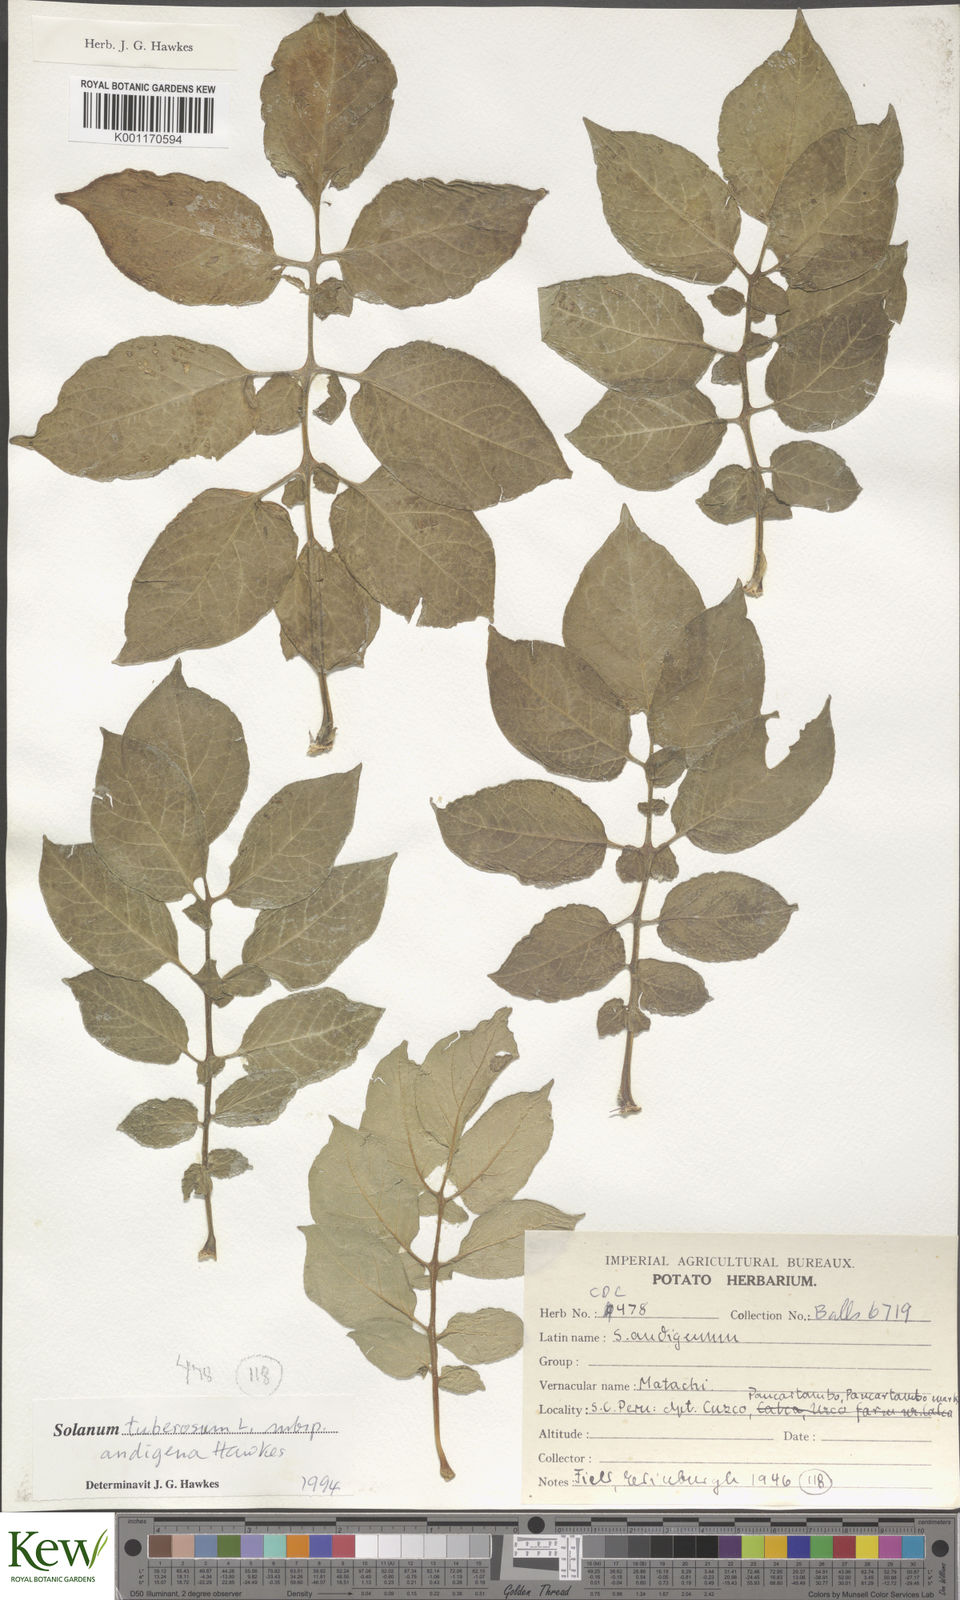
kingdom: Plantae
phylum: Tracheophyta
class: Magnoliopsida
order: Solanales
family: Solanaceae
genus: Solanum
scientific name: Solanum tuberosum
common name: Potato
